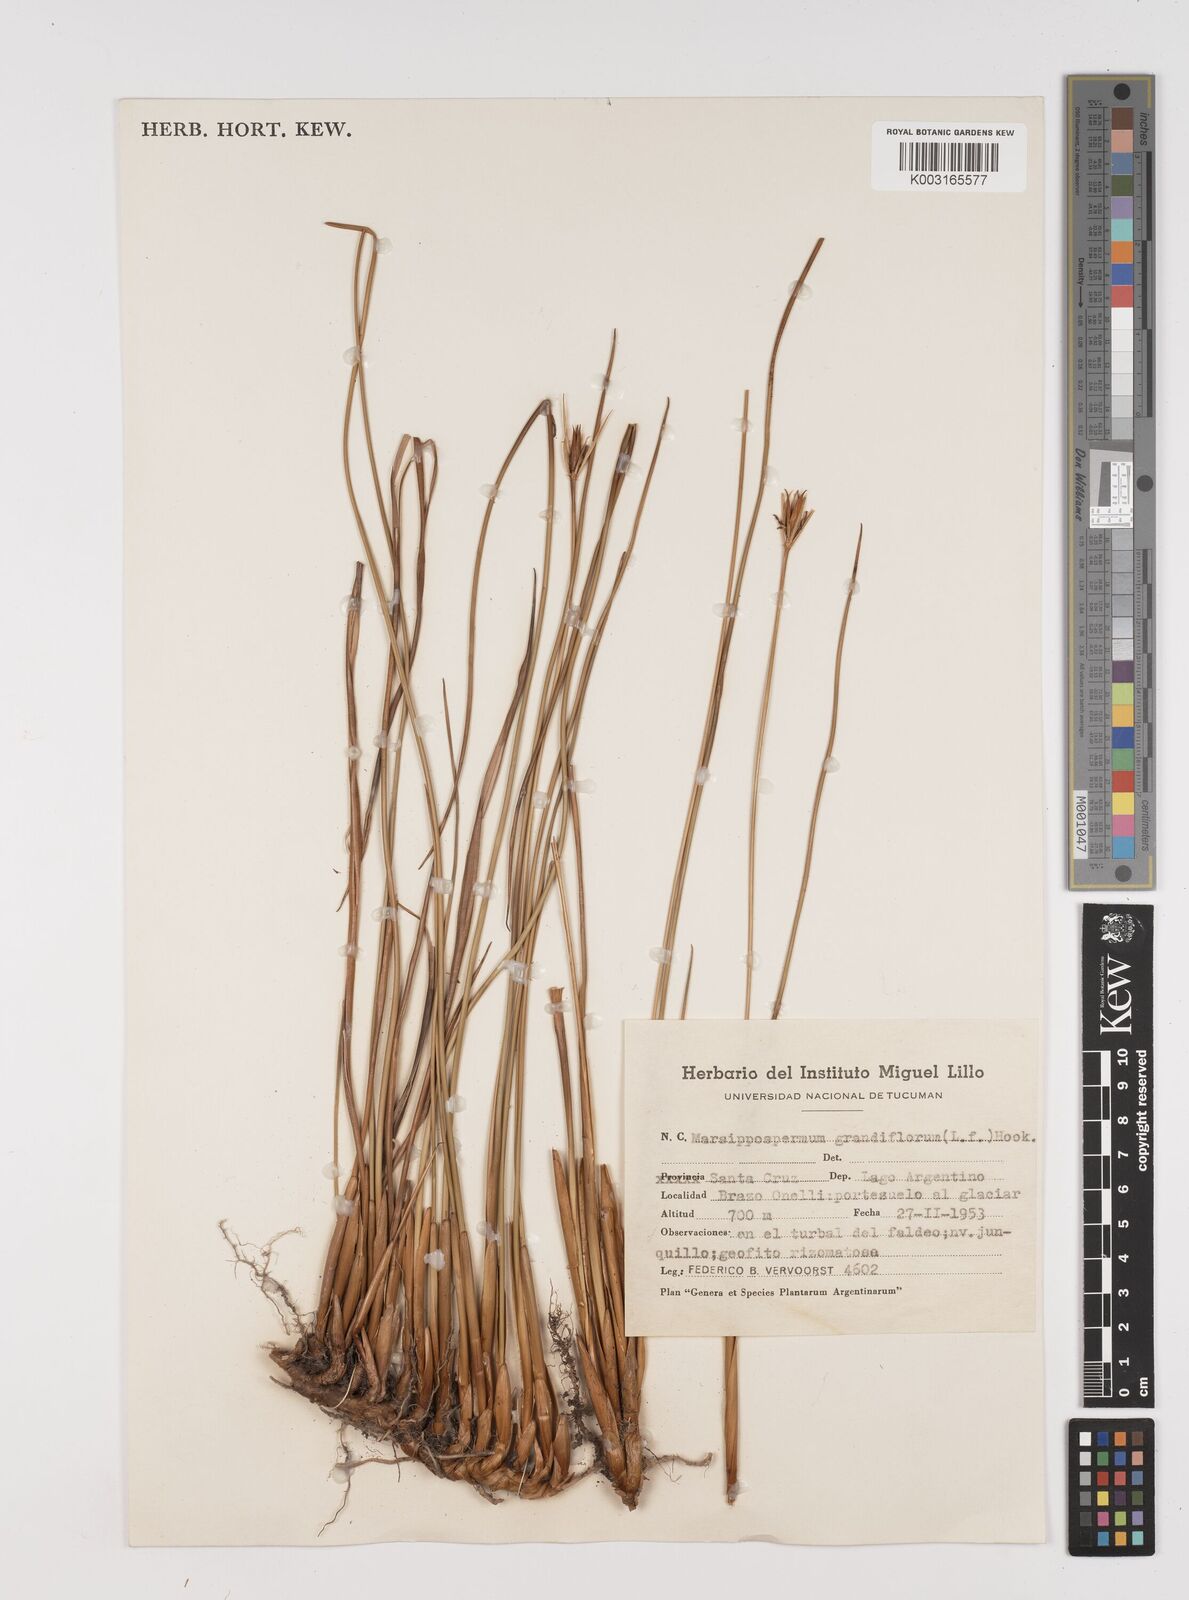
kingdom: Plantae
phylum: Tracheophyta
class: Liliopsida
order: Poales
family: Juncaceae
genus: Marsippospermum
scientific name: Marsippospermum grandiflorum
